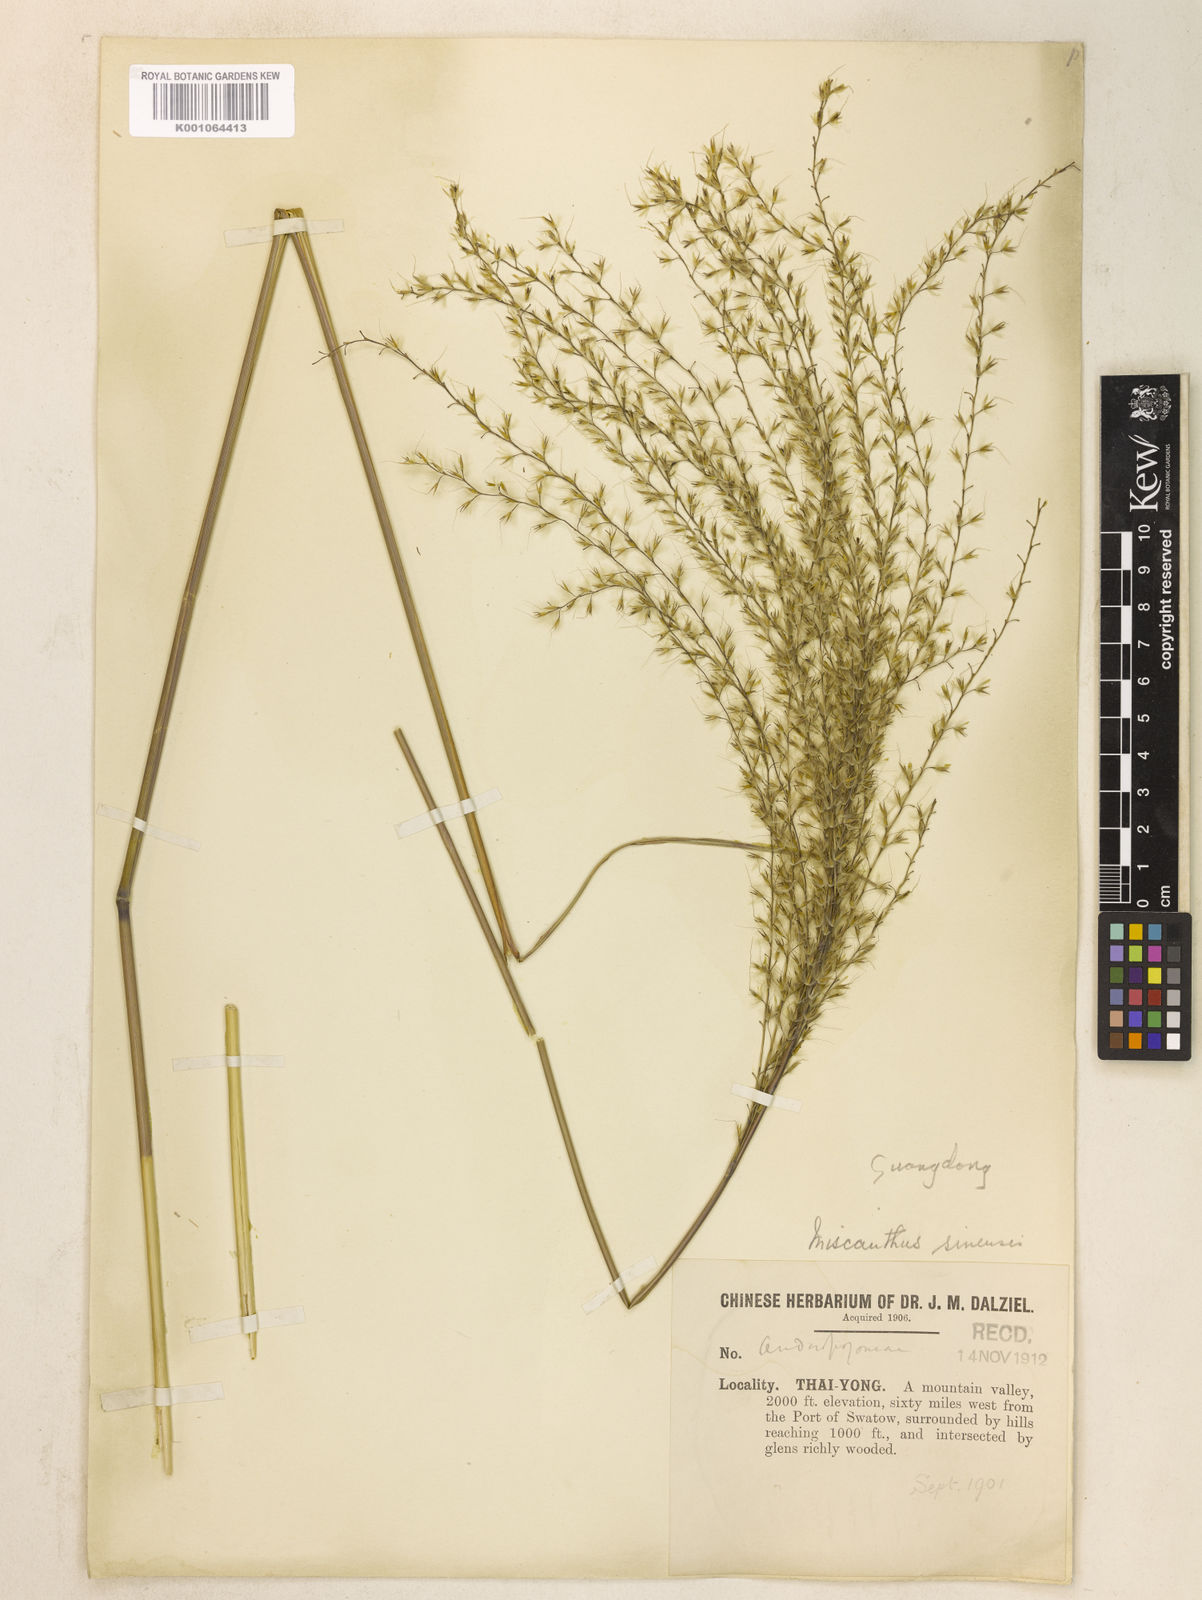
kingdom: Plantae
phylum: Tracheophyta
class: Liliopsida
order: Poales
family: Poaceae
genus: Miscanthus
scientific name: Miscanthus sinensis
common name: Chinese silvergrass
